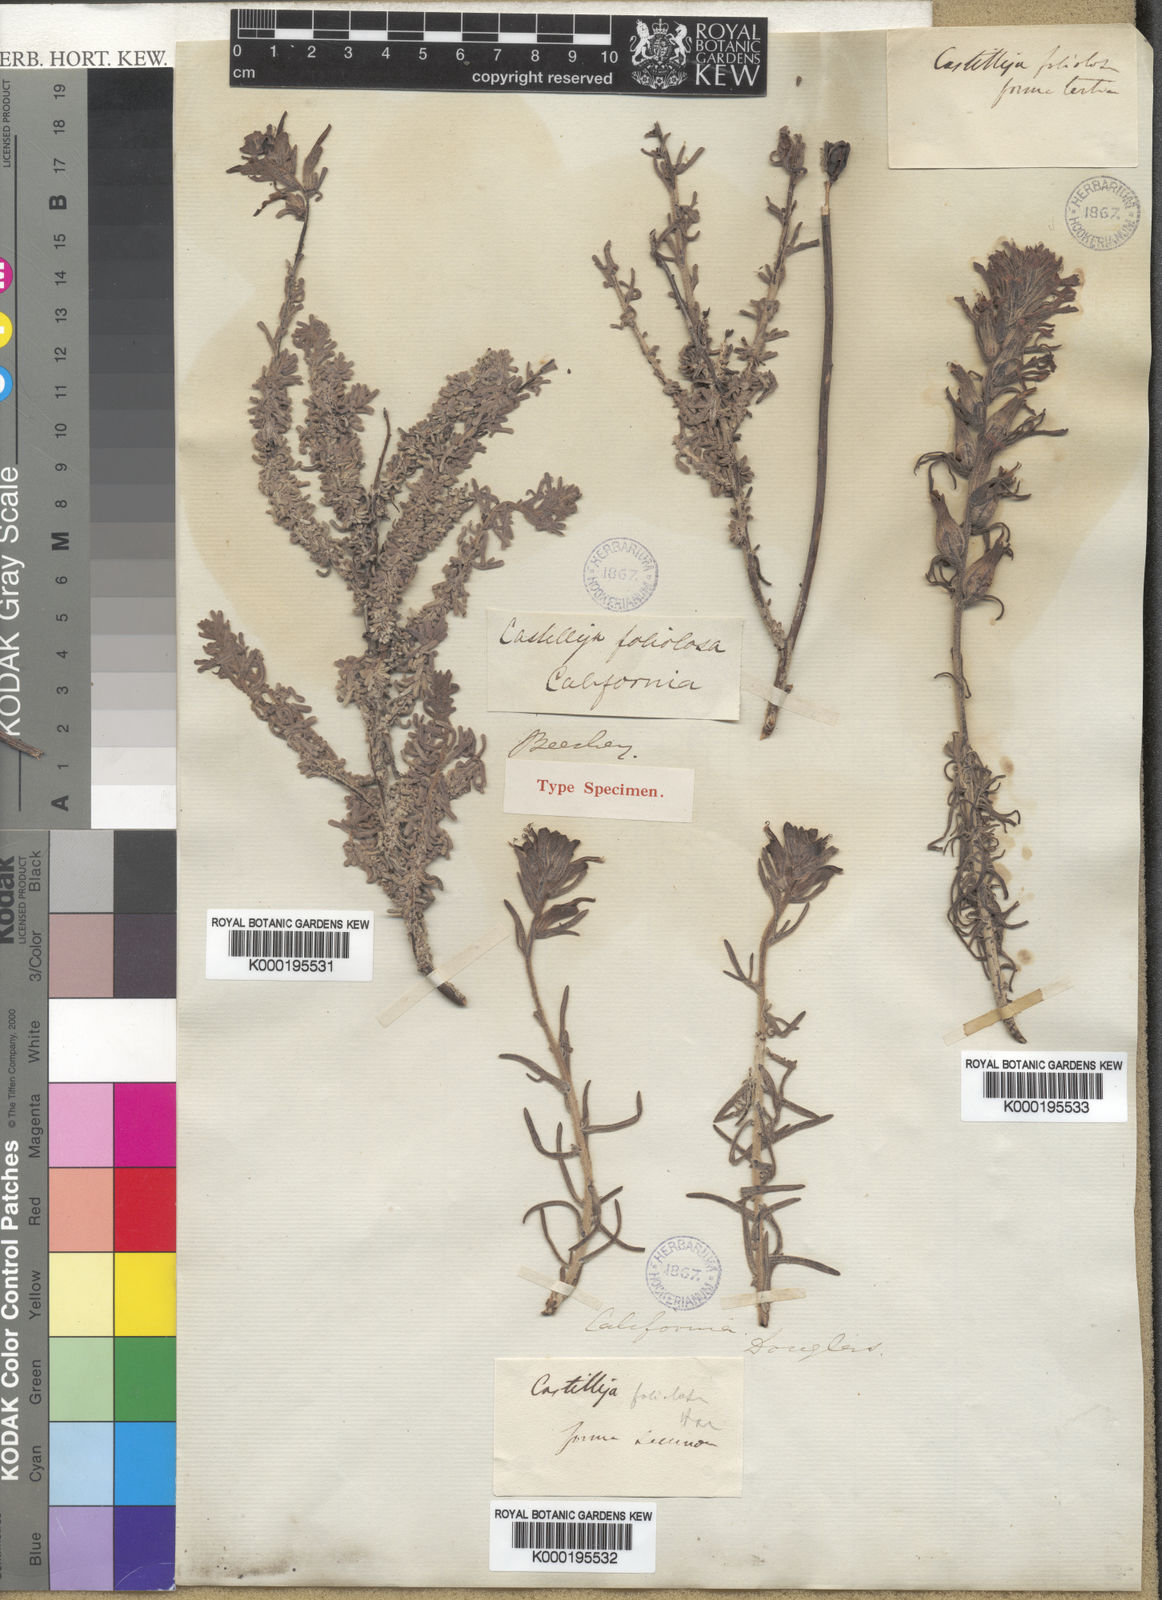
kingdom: Plantae
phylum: Tracheophyta
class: Magnoliopsida
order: Lamiales
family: Orobanchaceae
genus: Castilleja
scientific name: Castilleja foliolosa
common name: Woolly indian paintbrush
